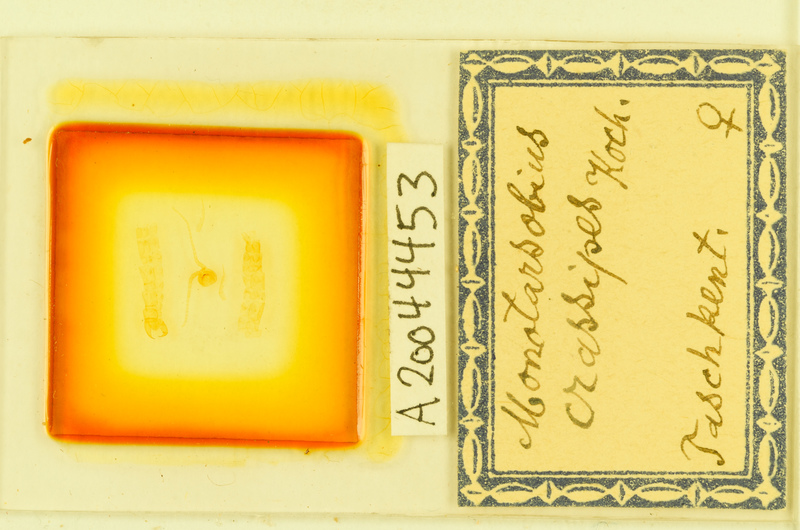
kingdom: Animalia
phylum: Arthropoda
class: Chilopoda
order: Lithobiomorpha
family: Lithobiidae
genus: Lithobius
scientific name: Lithobius crassipes
